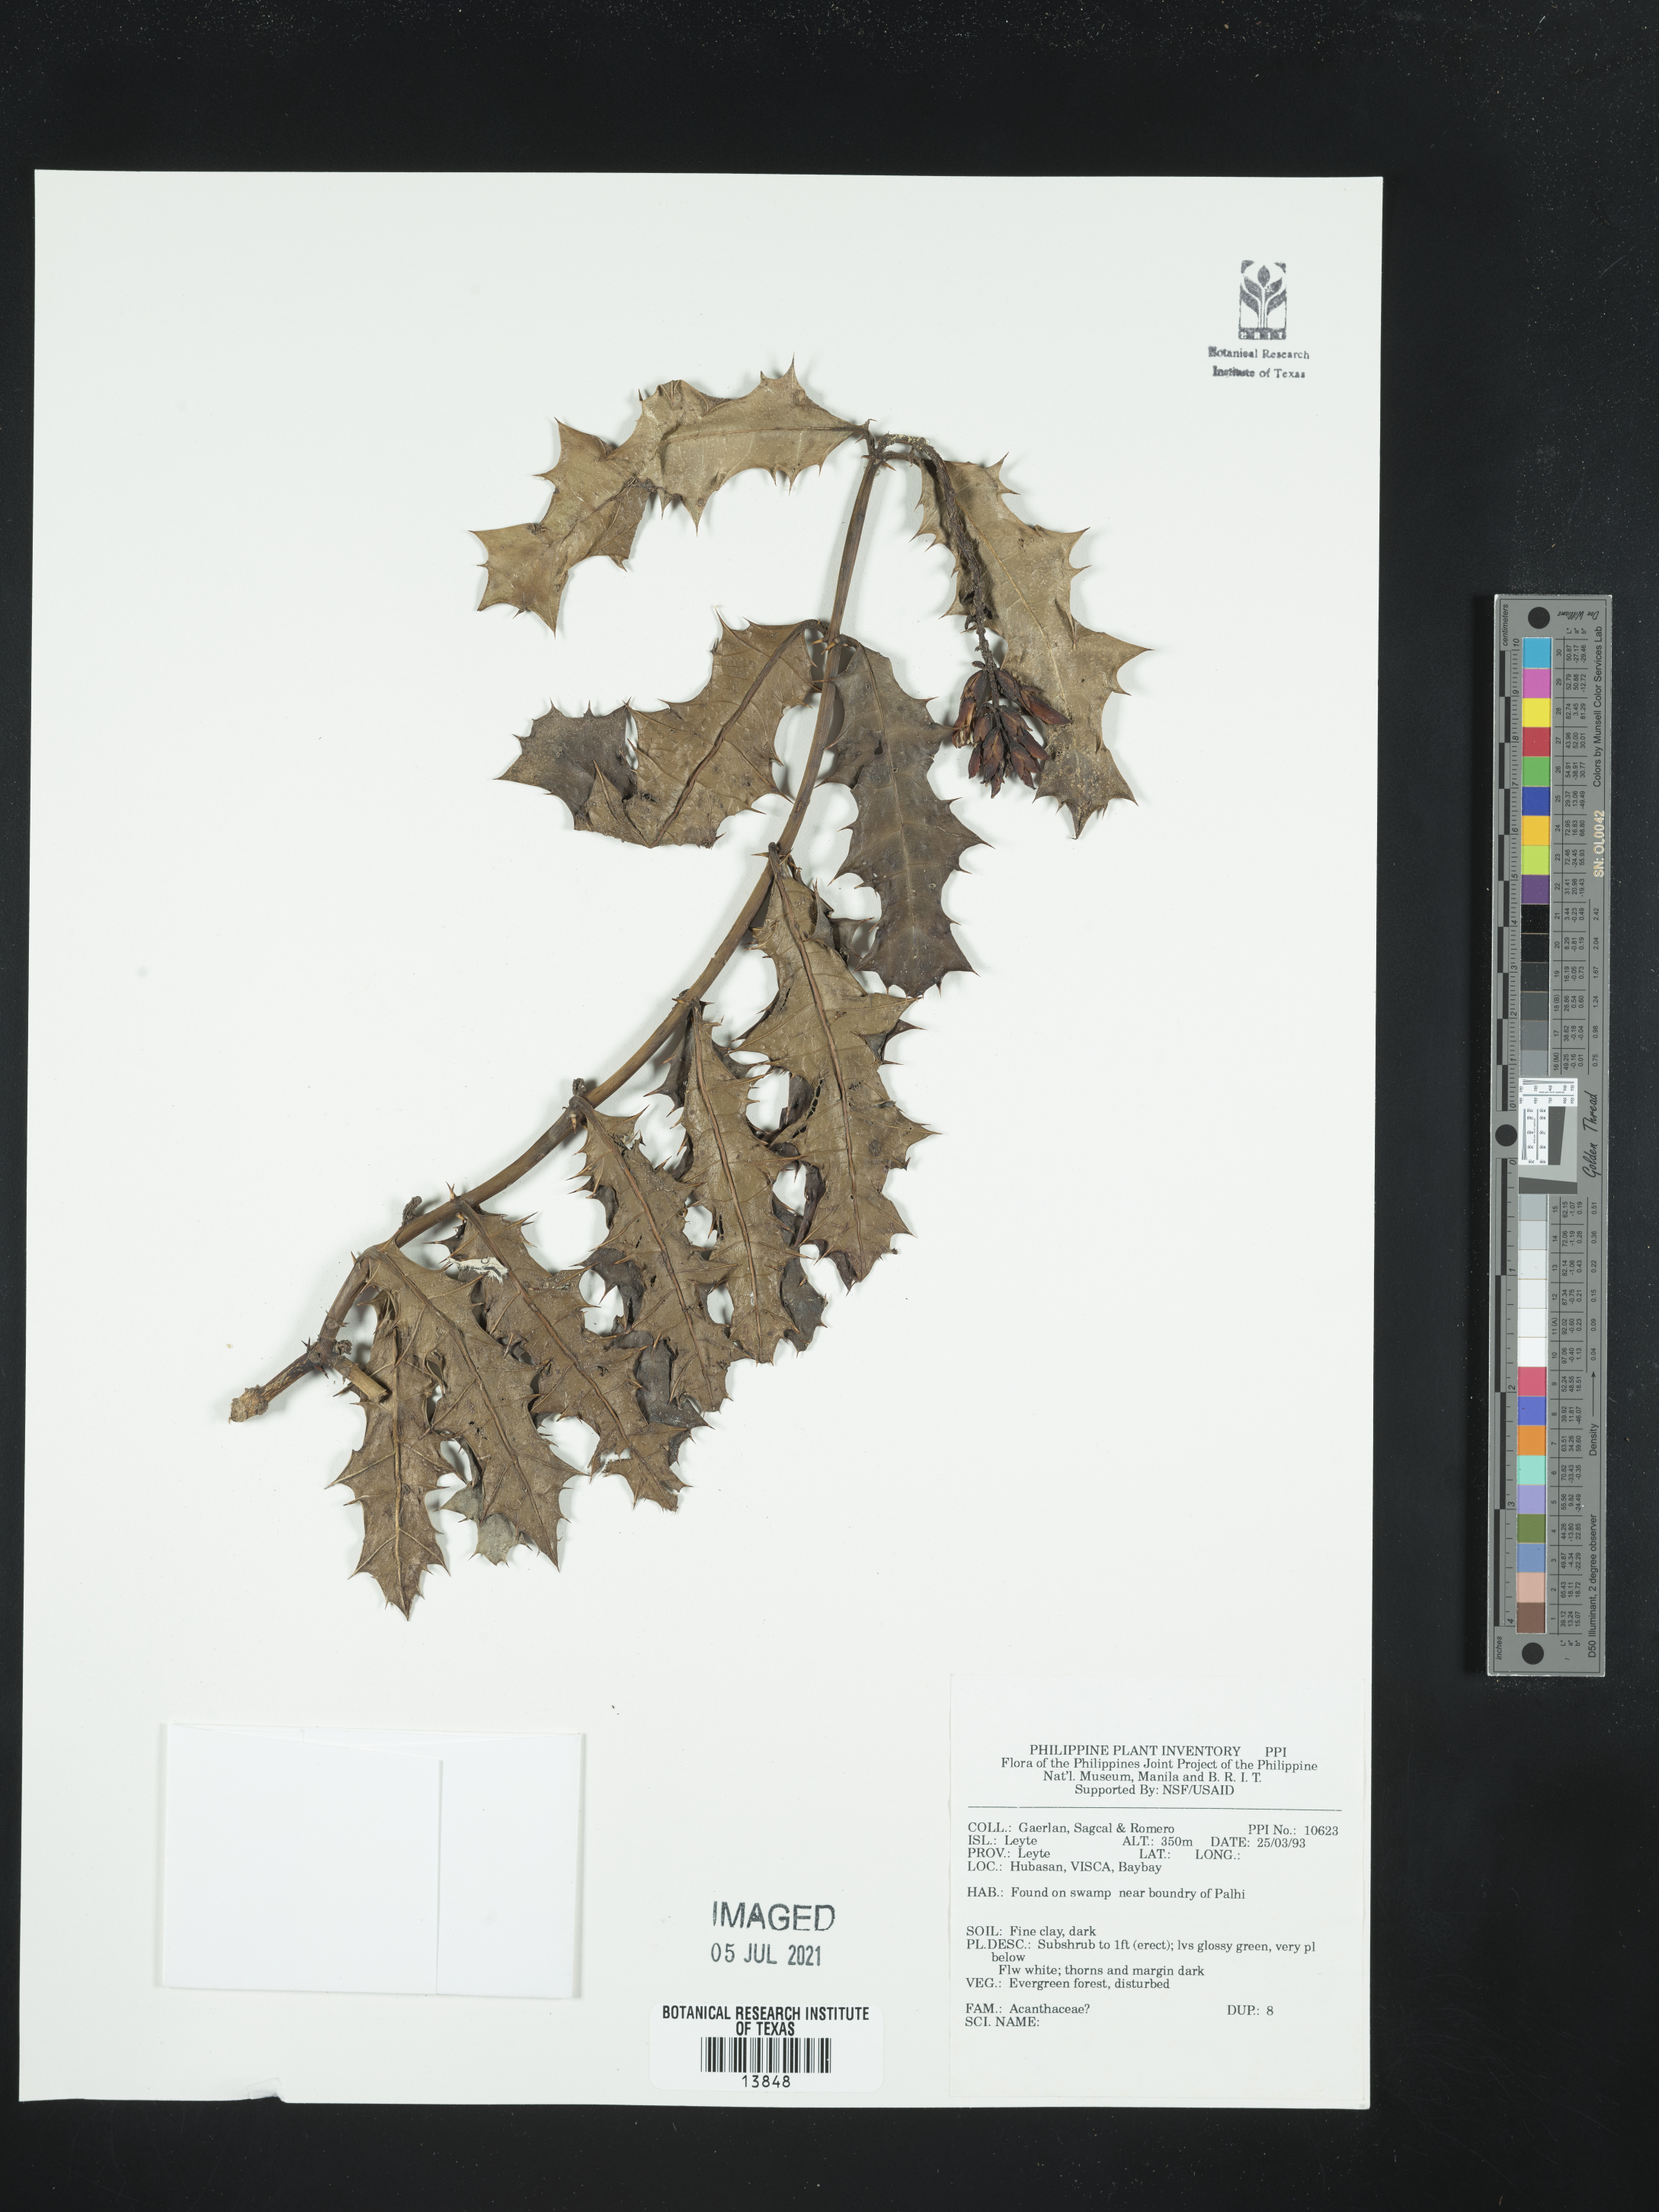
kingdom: Plantae
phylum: Tracheophyta
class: Magnoliopsida
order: Lamiales
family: Acanthaceae
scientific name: Acanthaceae
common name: Acanthaceae
